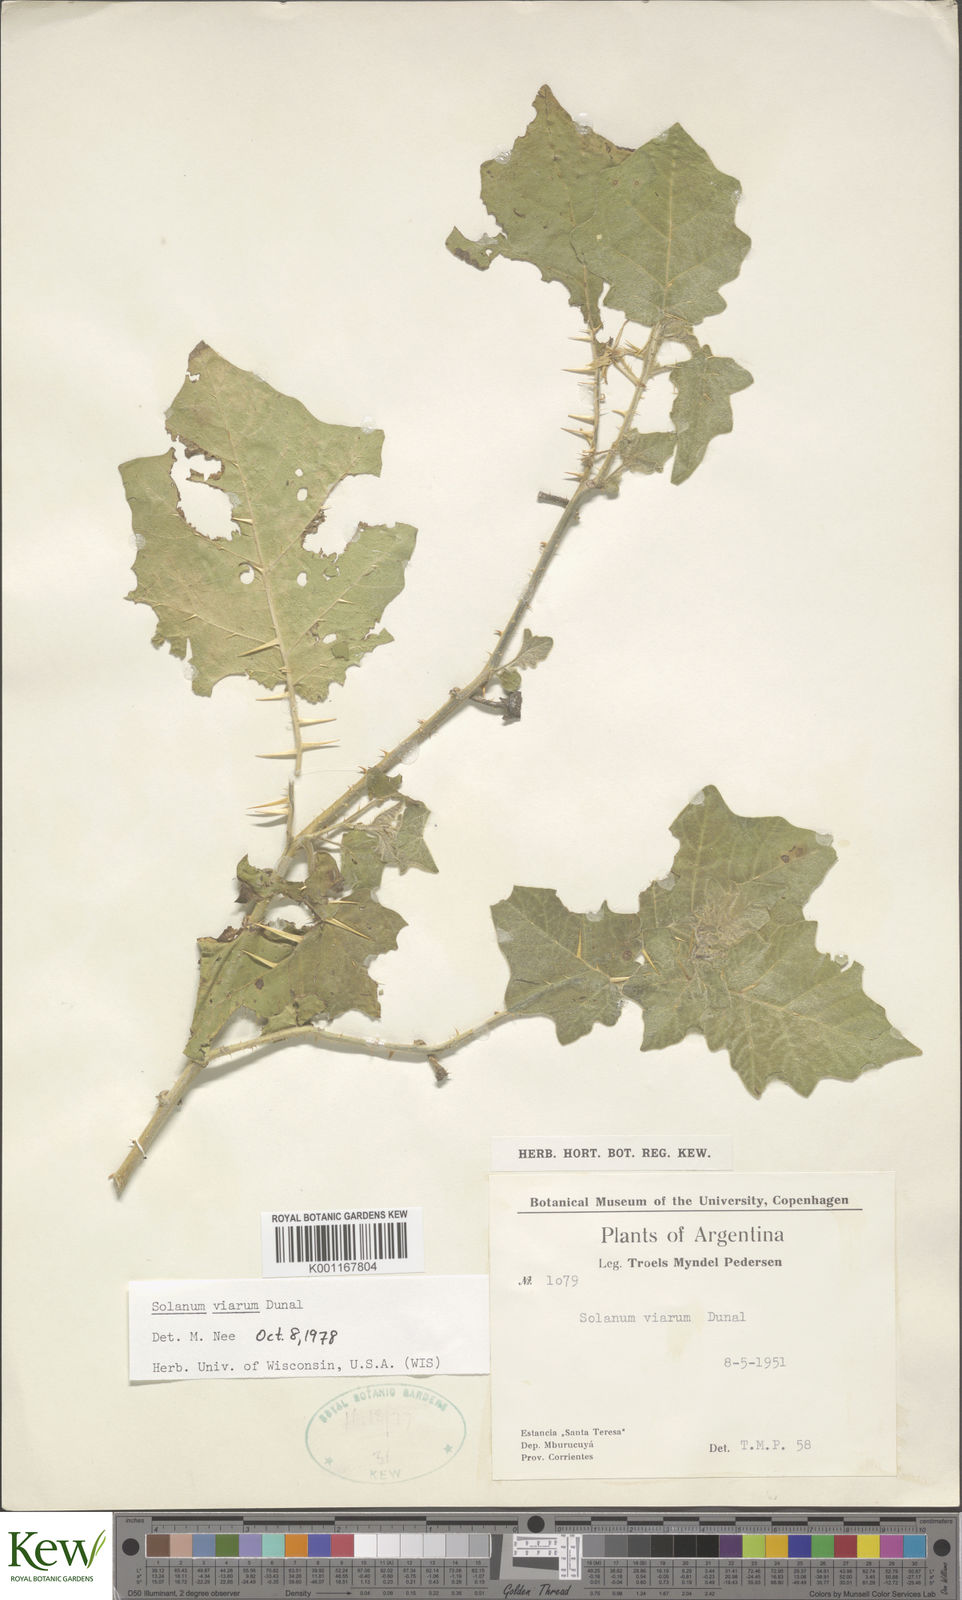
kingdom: Plantae
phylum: Tracheophyta
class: Magnoliopsida
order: Solanales
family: Solanaceae
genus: Solanum
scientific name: Solanum viarum
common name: Tropical soda apple
